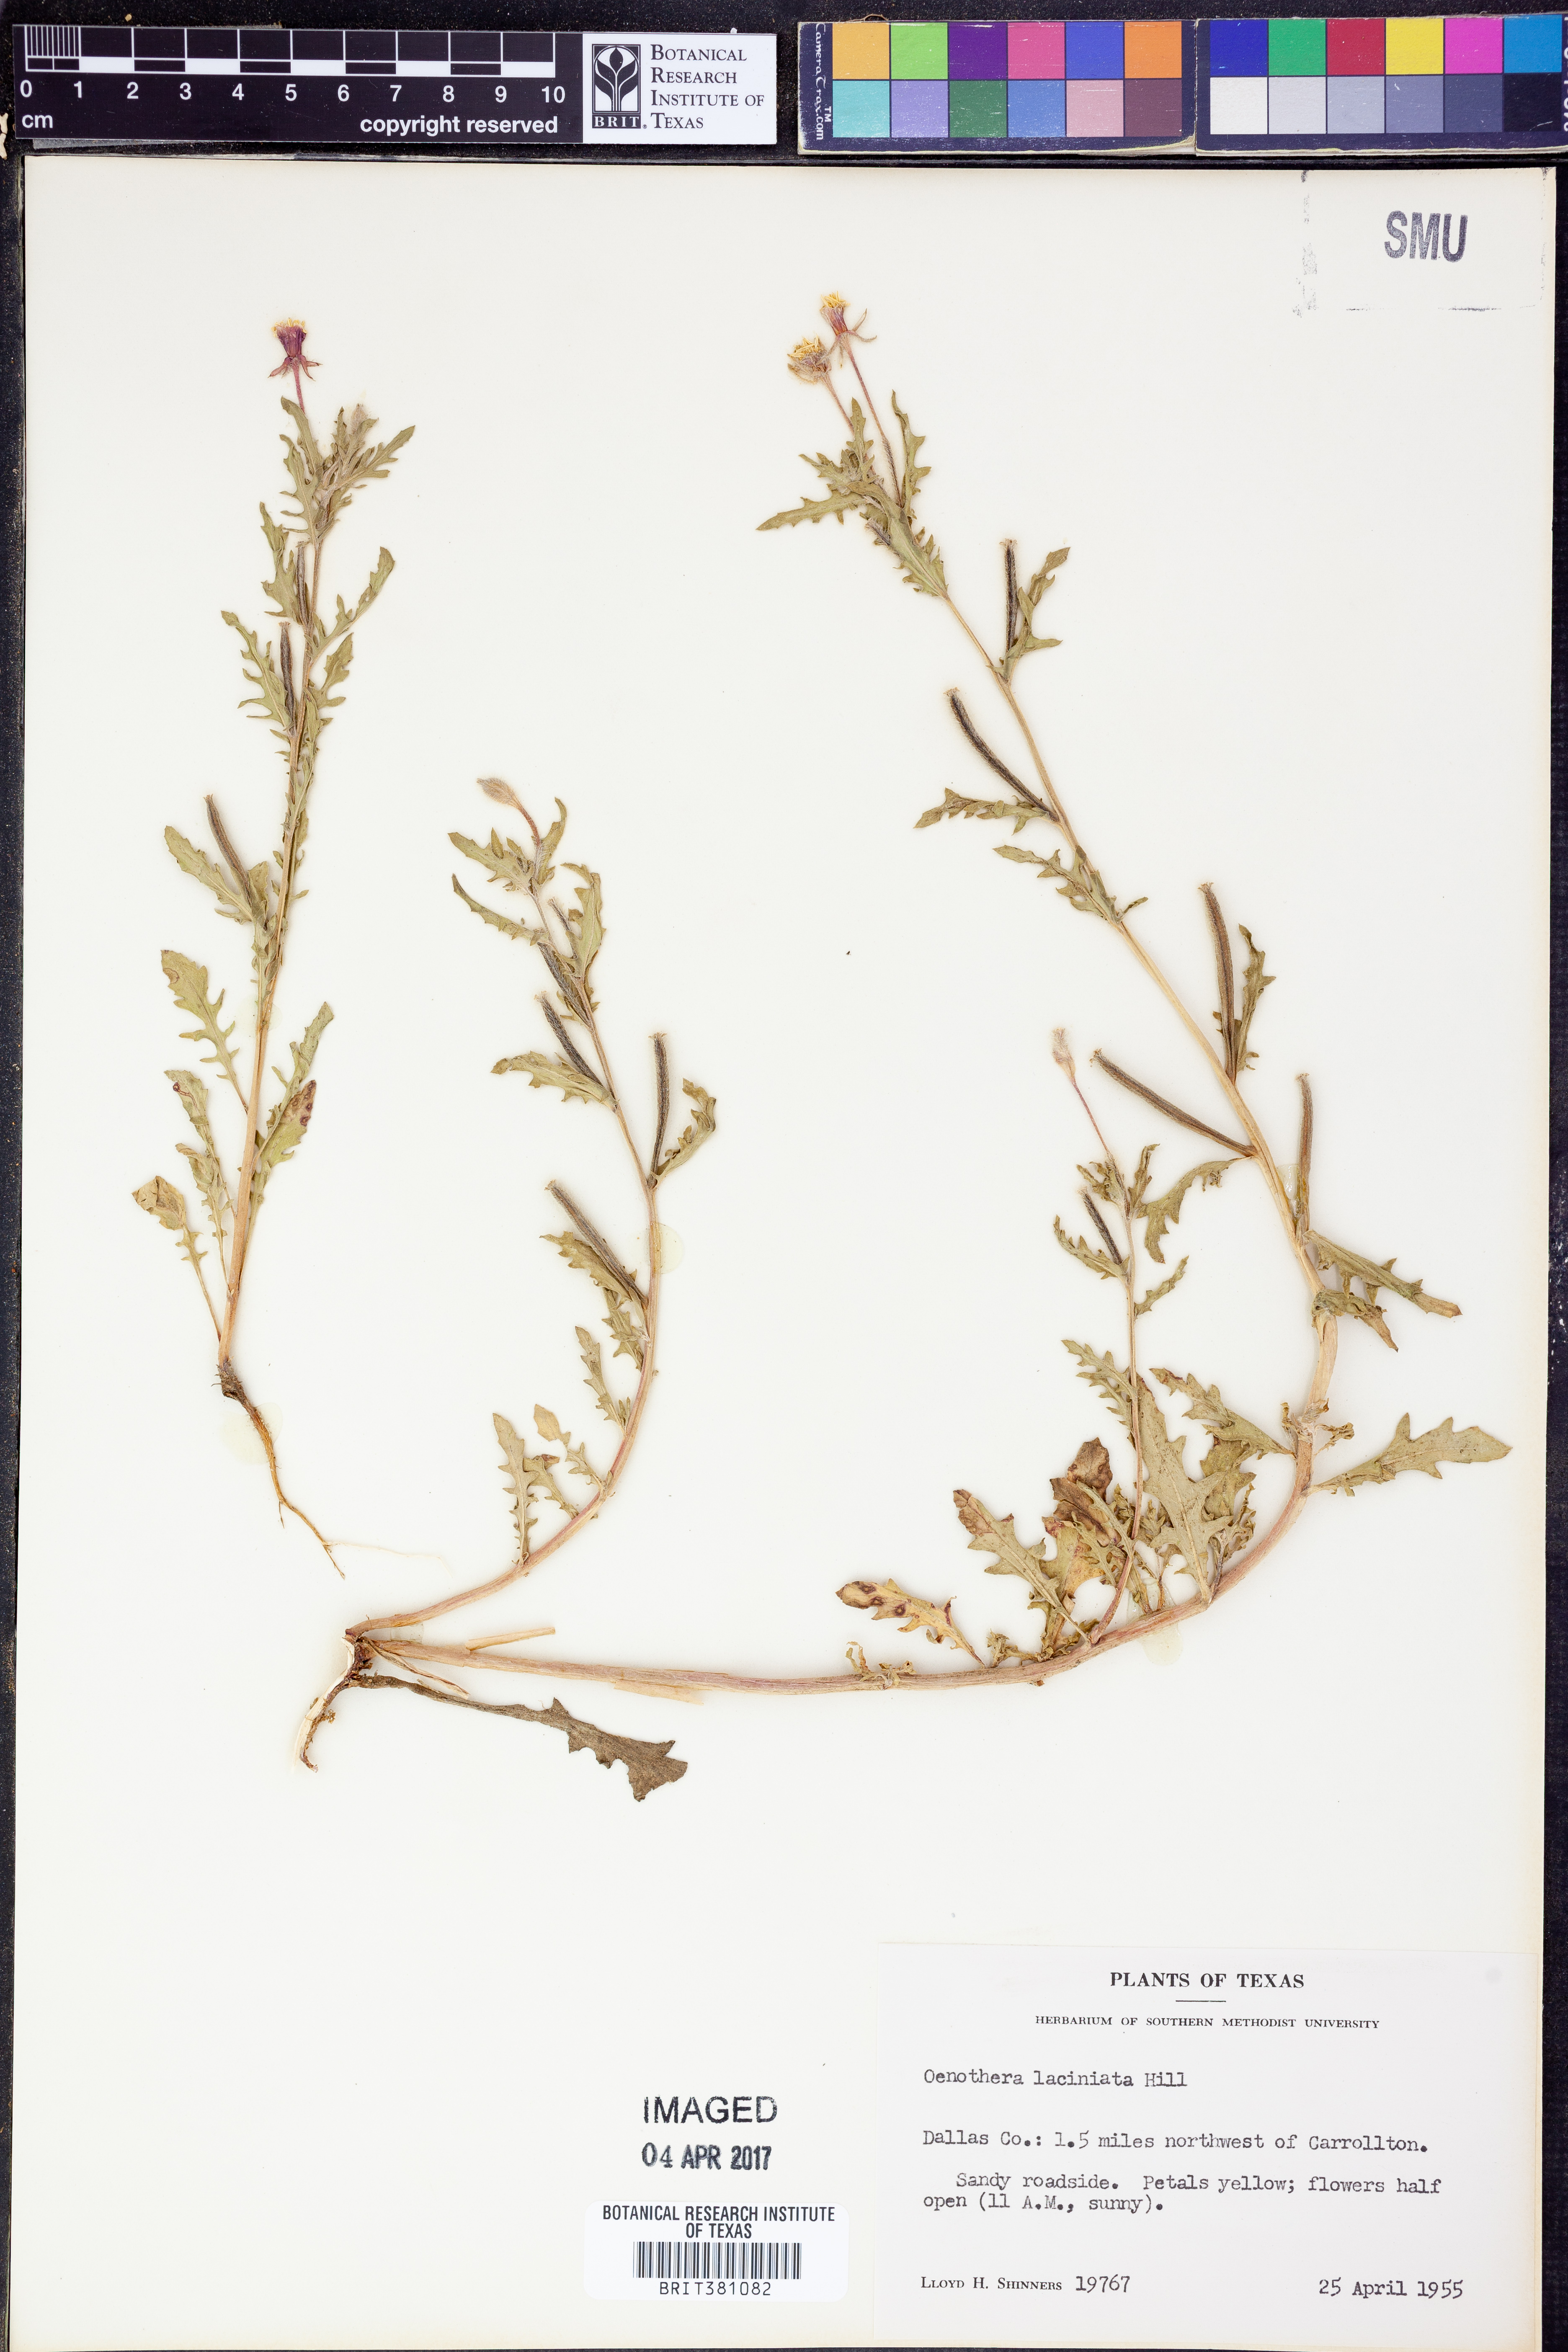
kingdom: Plantae
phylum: Tracheophyta
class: Magnoliopsida
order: Myrtales
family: Onagraceae
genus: Oenothera
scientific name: Oenothera laciniata
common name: Cut-leaved evening-primrose
